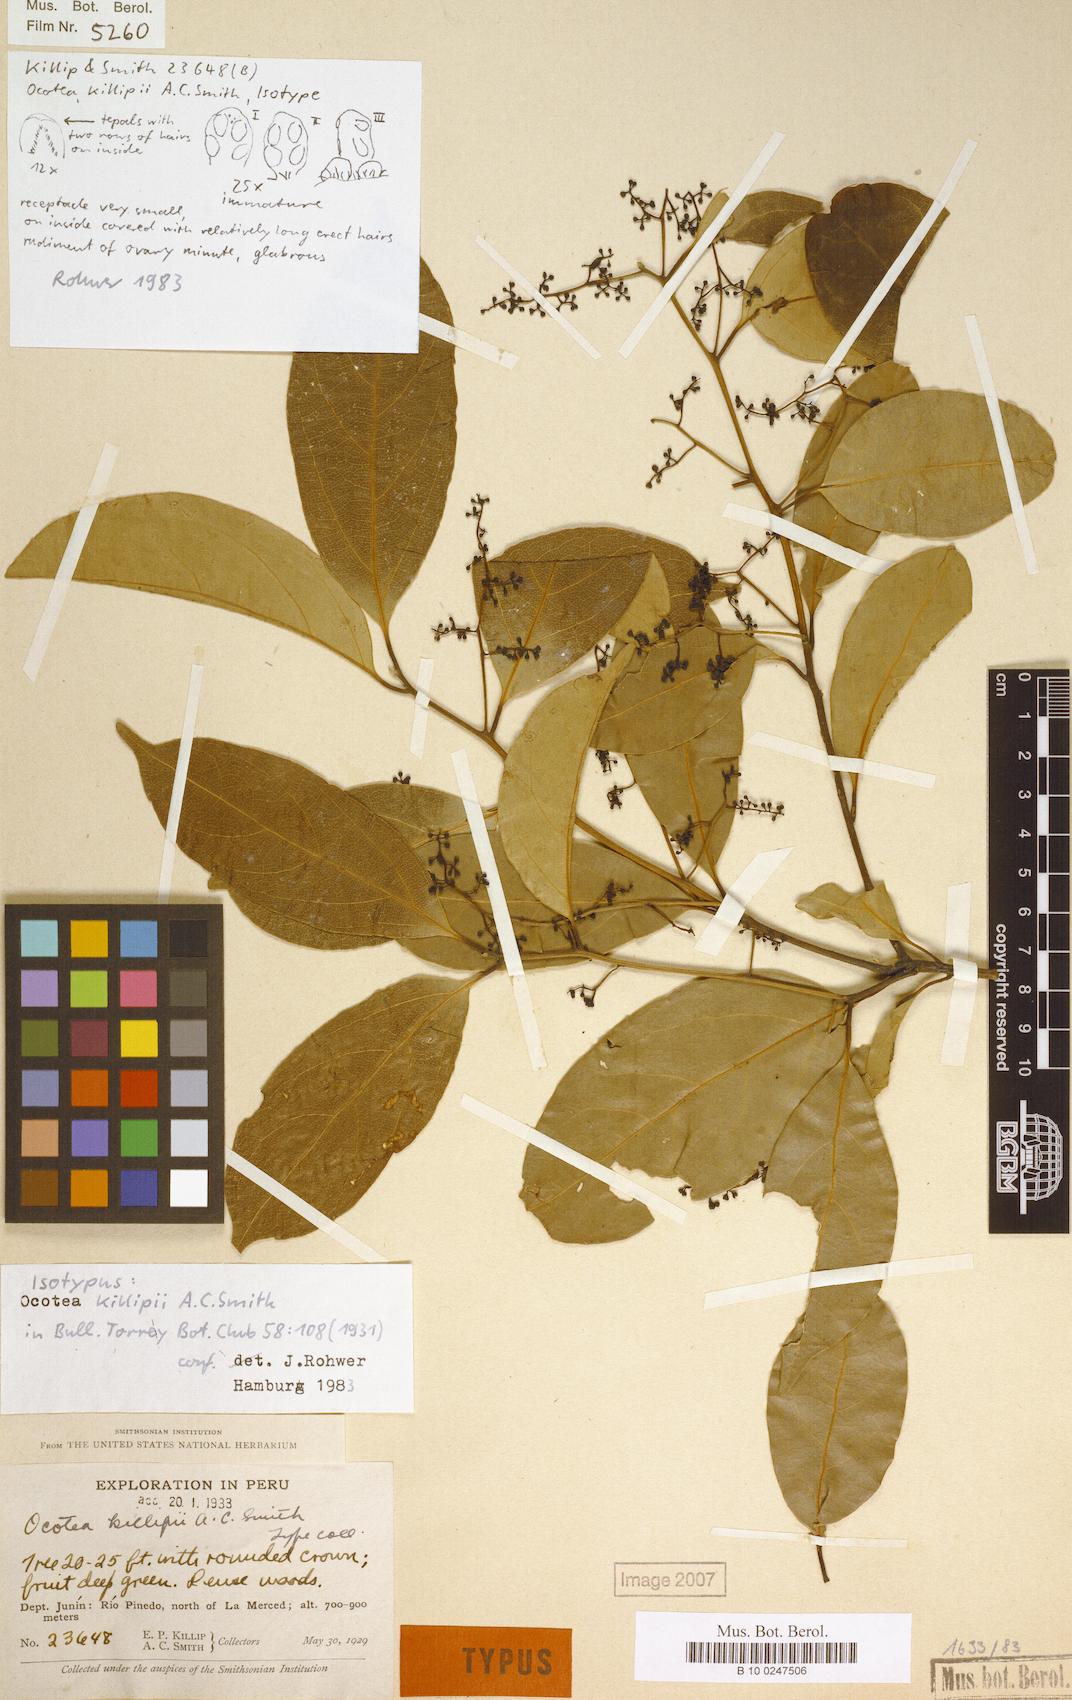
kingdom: Plantae
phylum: Tracheophyta
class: Magnoliopsida
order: Laurales
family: Lauraceae
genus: Ocotea
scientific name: Ocotea killipii
